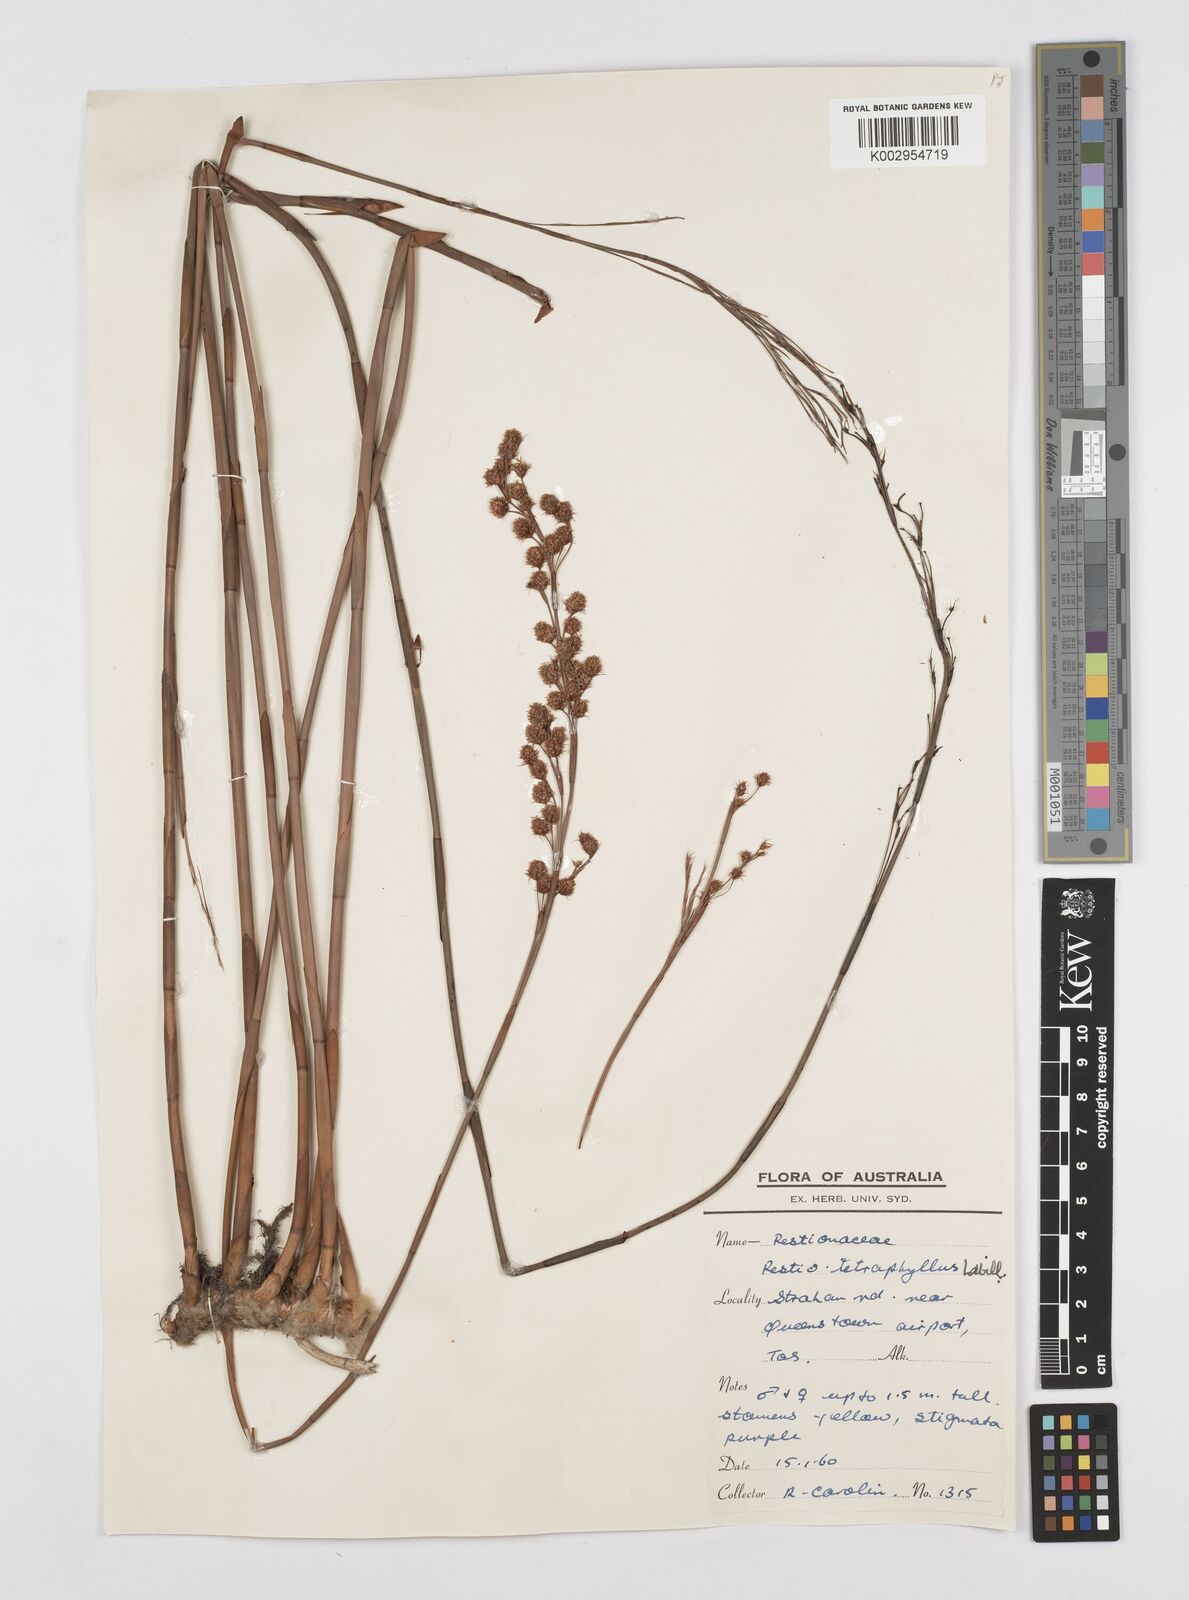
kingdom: Plantae
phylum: Tracheophyta
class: Liliopsida
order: Poales
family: Restionaceae
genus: Baloskion
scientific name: Baloskion tetraphyllum
